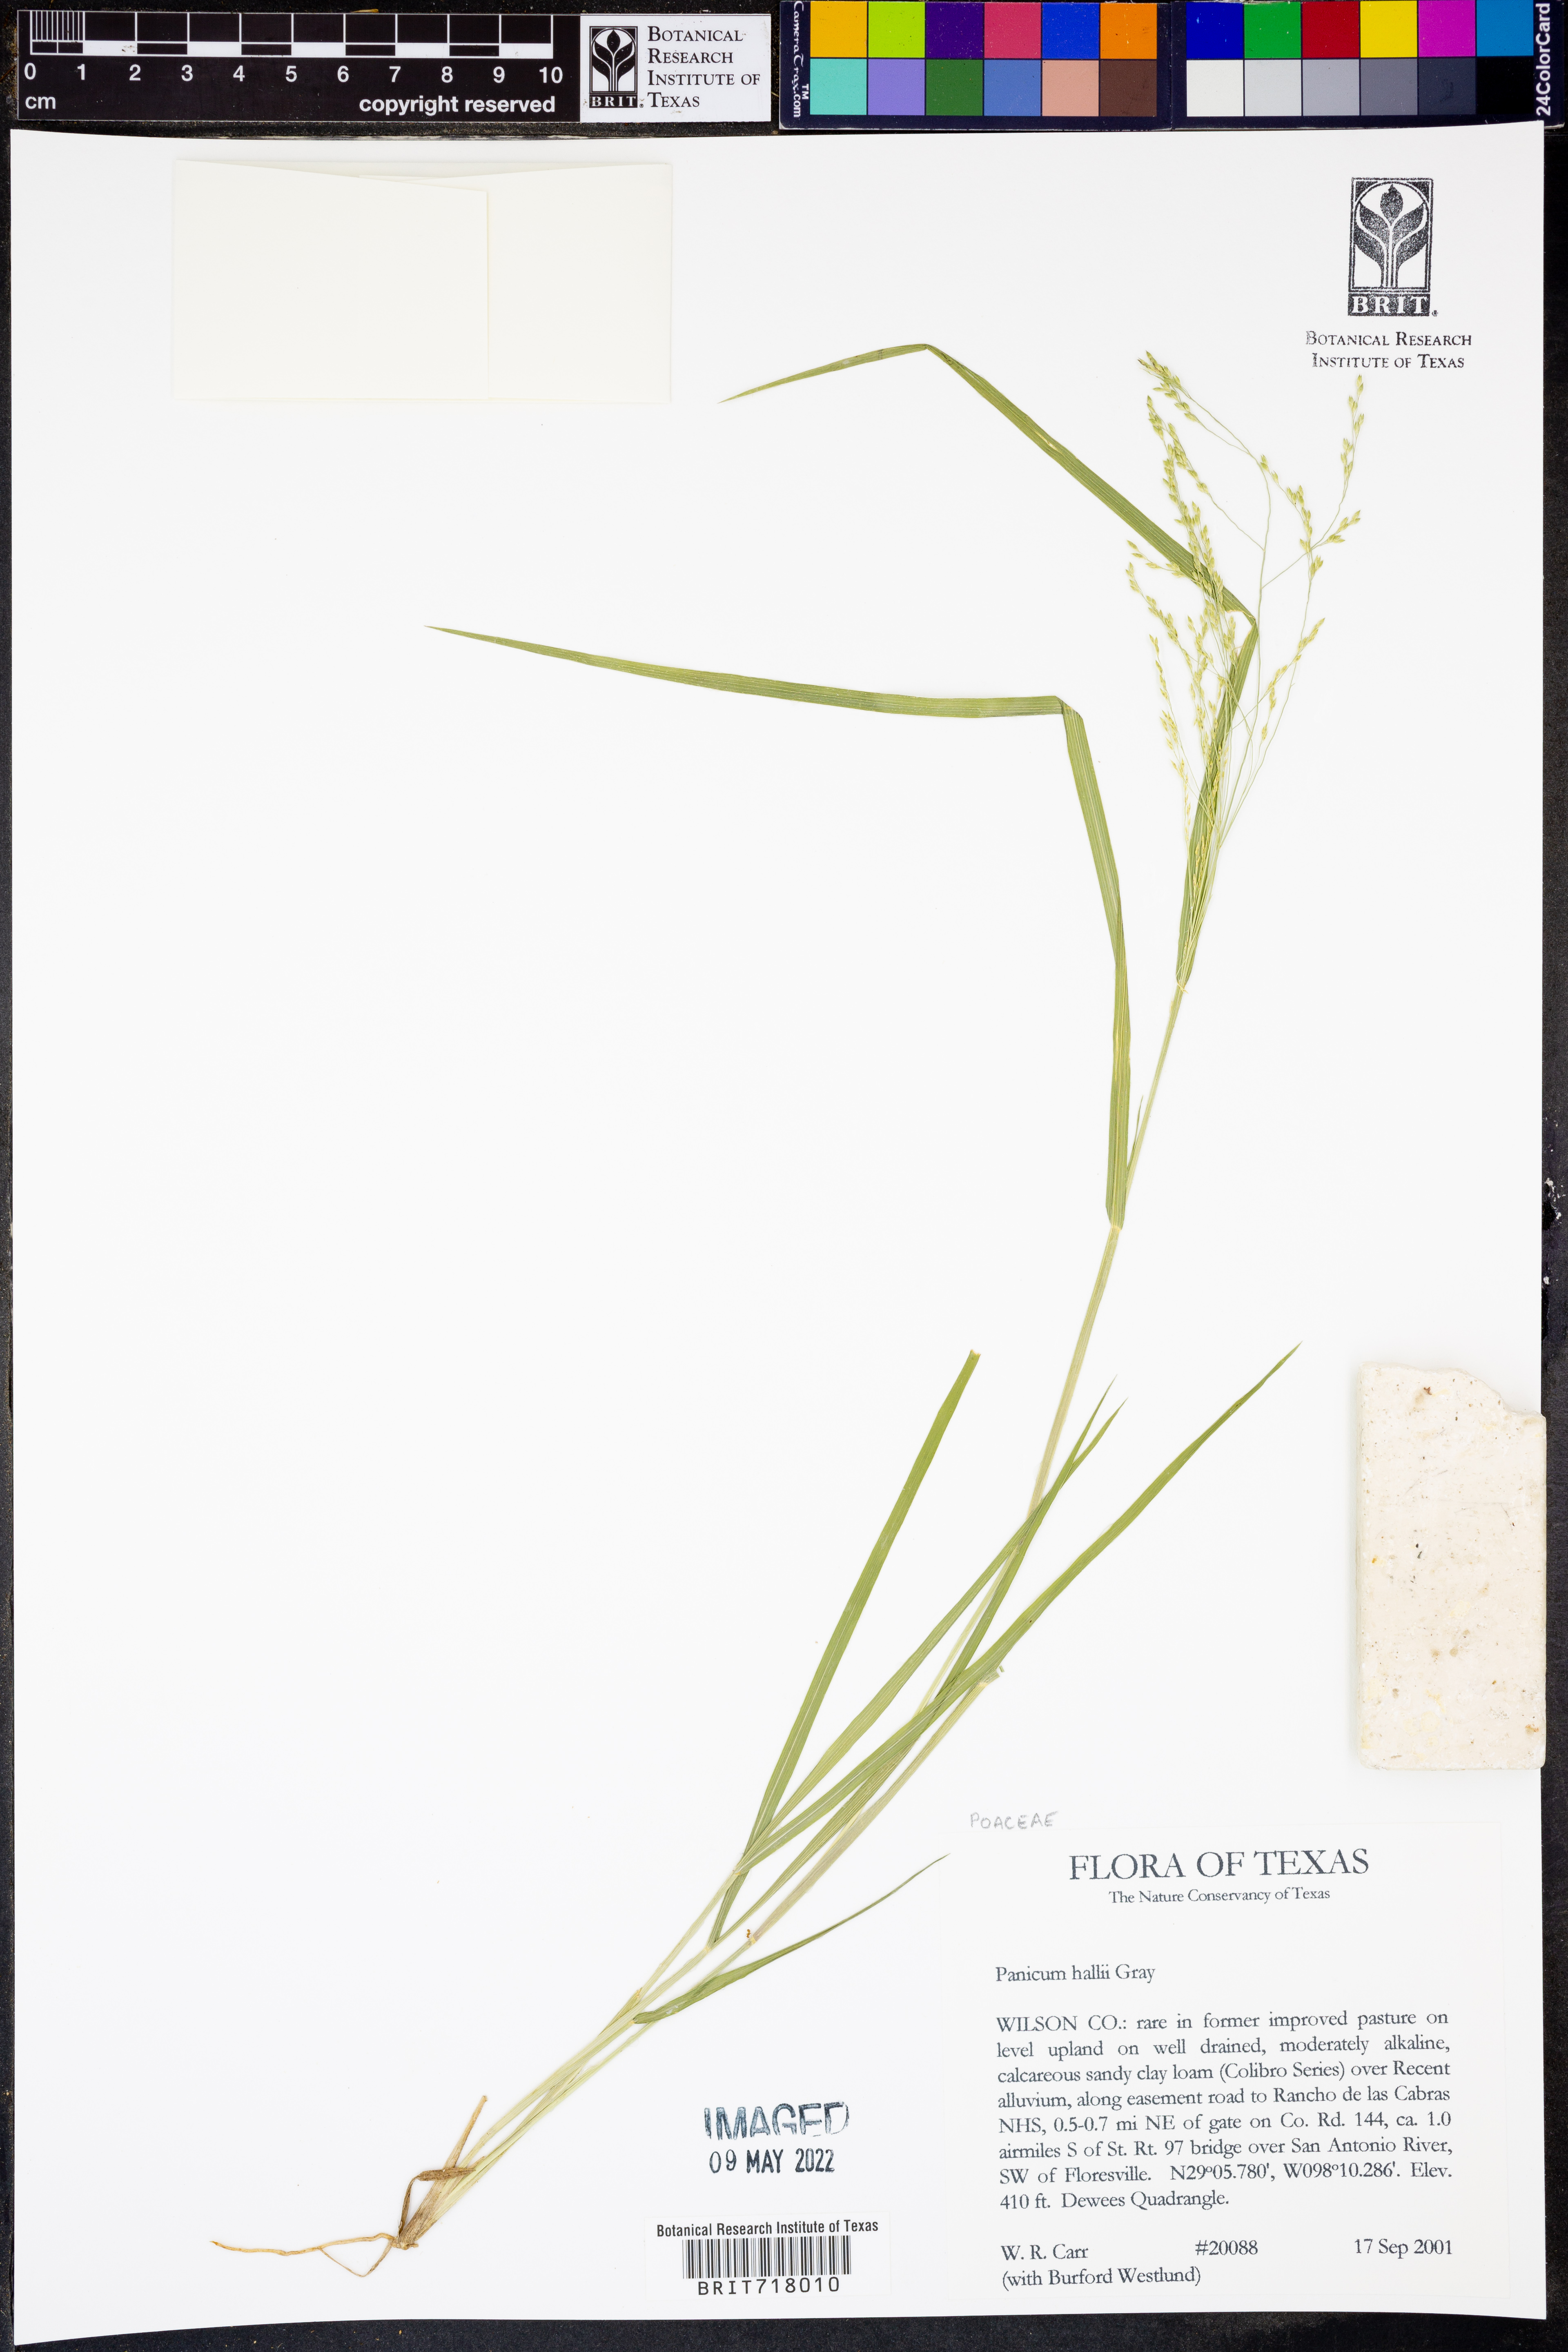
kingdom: Plantae
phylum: Tracheophyta
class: Liliopsida
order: Poales
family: Poaceae
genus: Panicum
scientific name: Panicum hallii
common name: Hall's witchgrass
